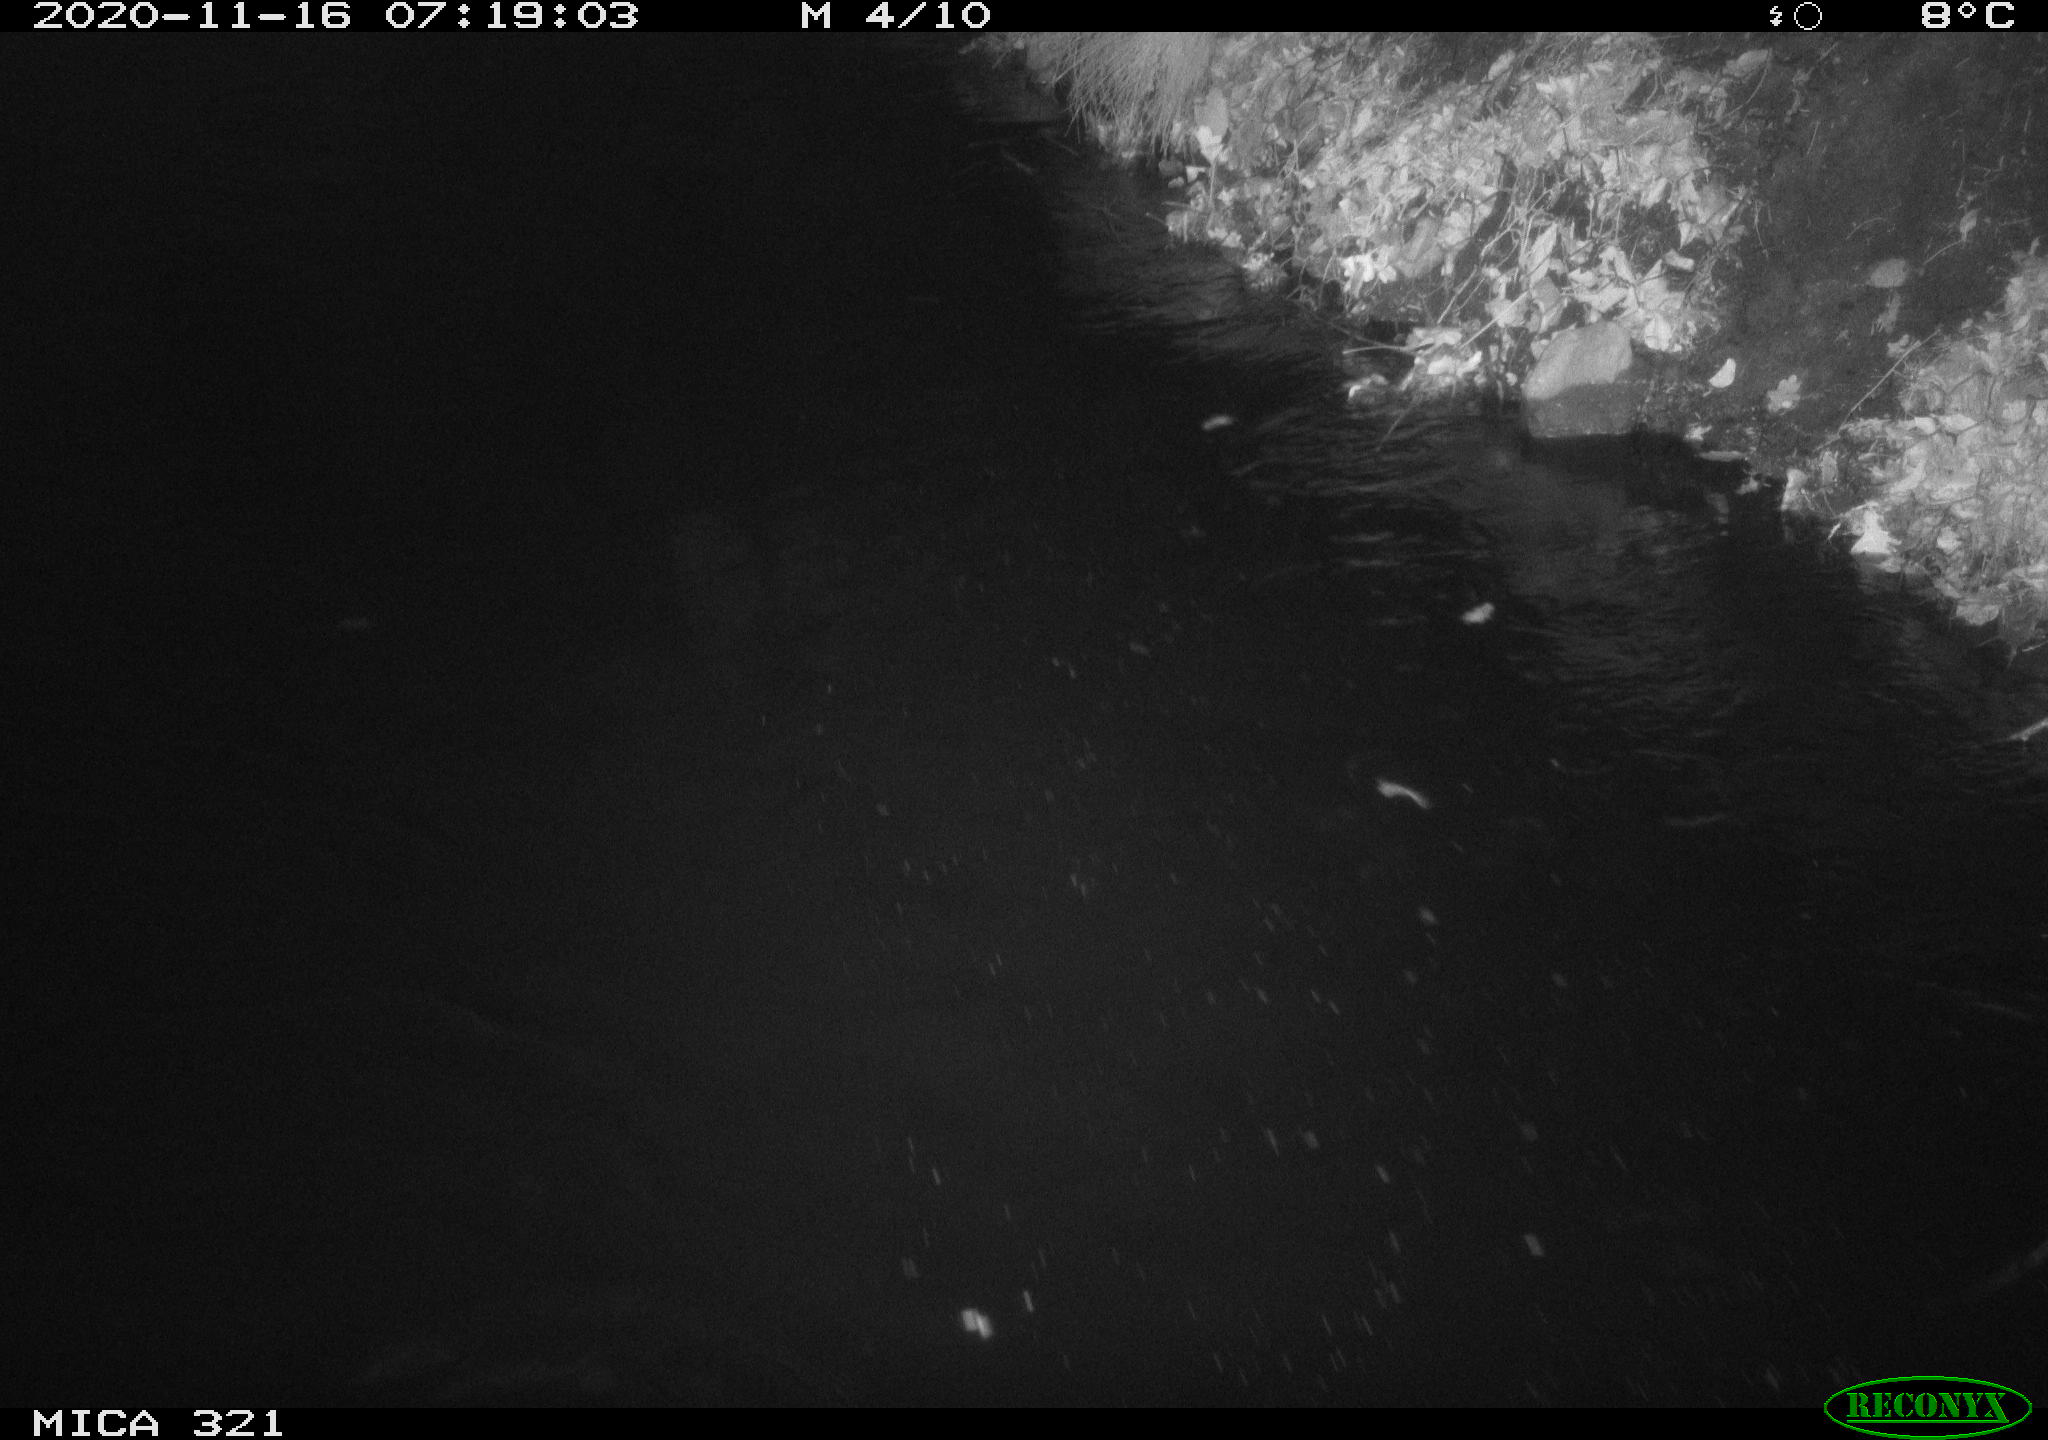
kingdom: Animalia
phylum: Chordata
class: Aves
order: Anseriformes
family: Anatidae
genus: Anas
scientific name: Anas platyrhynchos
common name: Mallard
